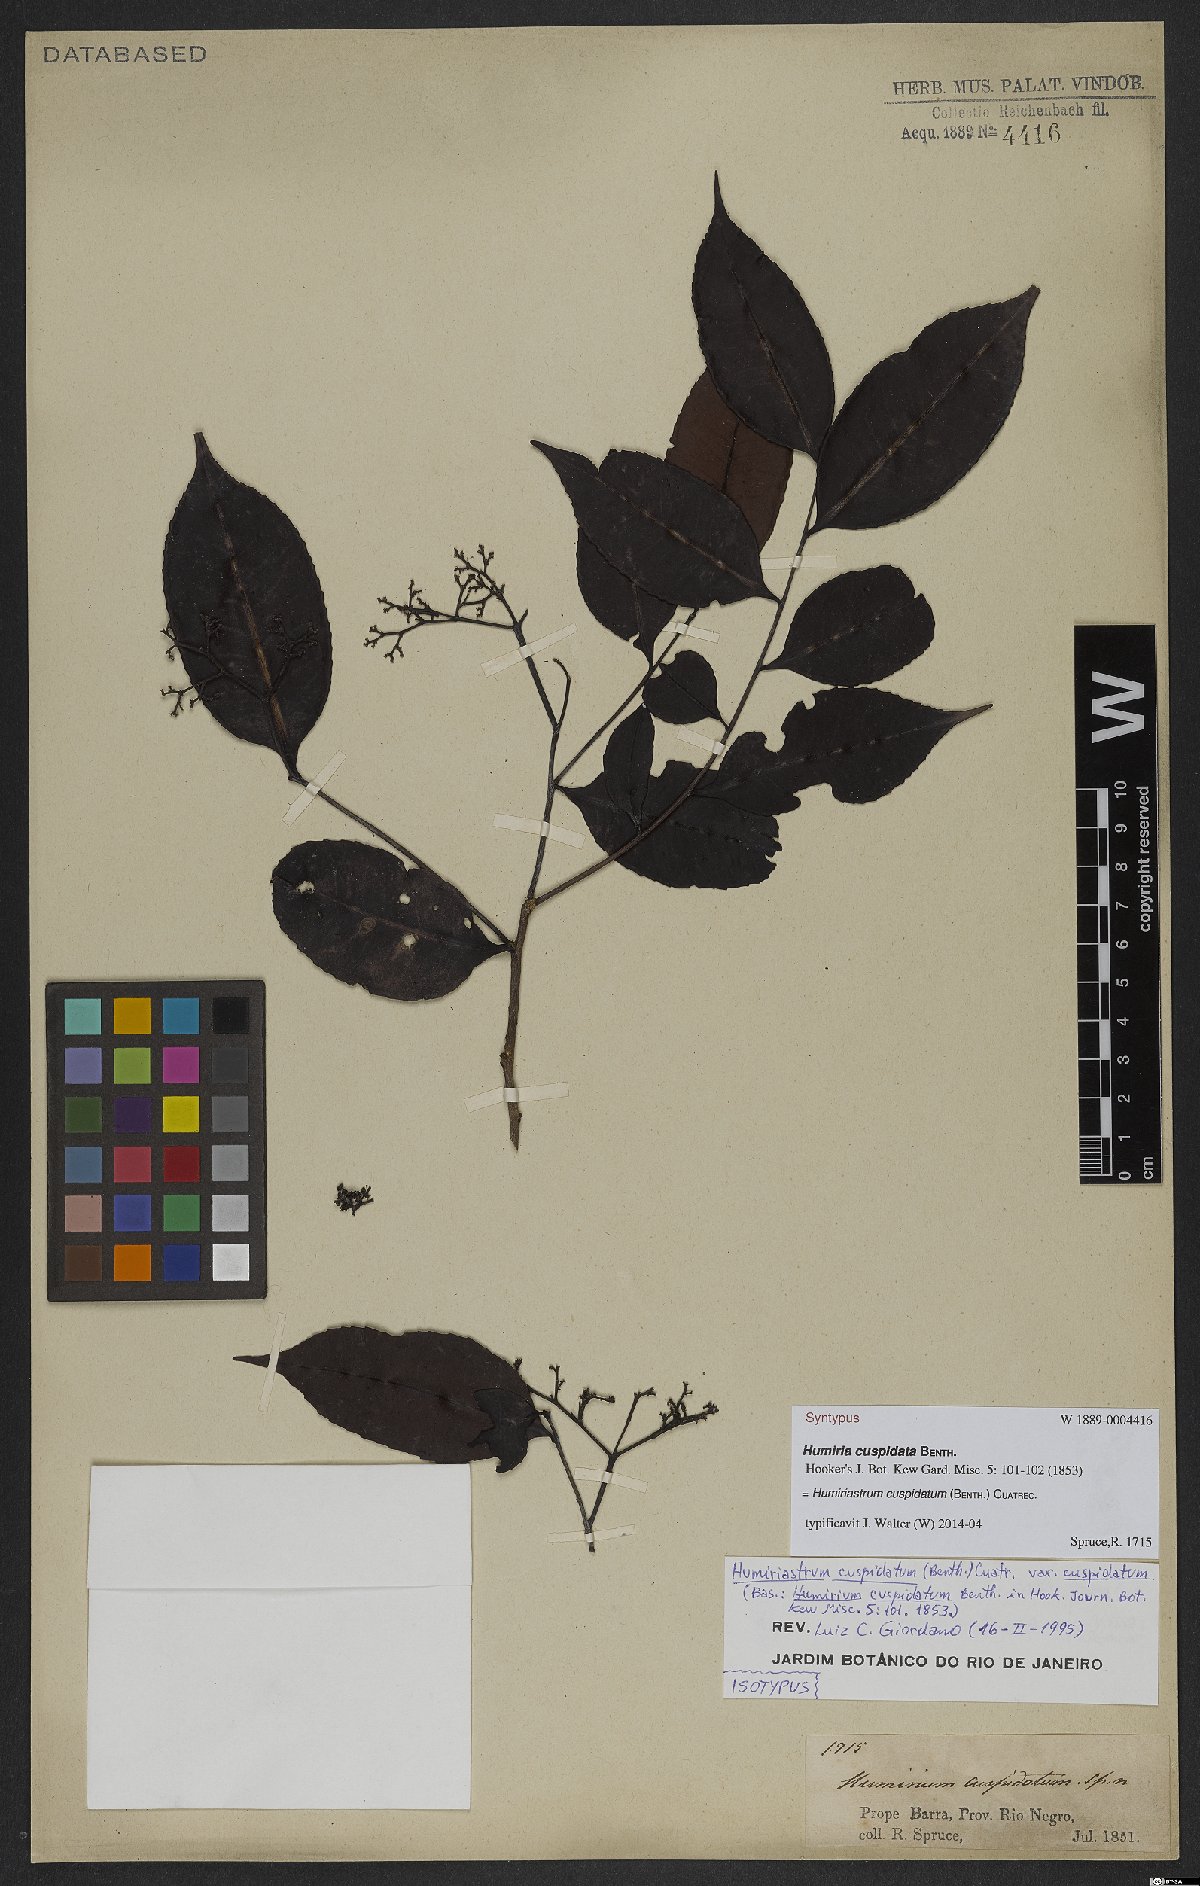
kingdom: Plantae
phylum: Tracheophyta
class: Magnoliopsida
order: Malpighiales
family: Humiriaceae
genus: Humiriastrum
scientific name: Humiriastrum cuspidatum
